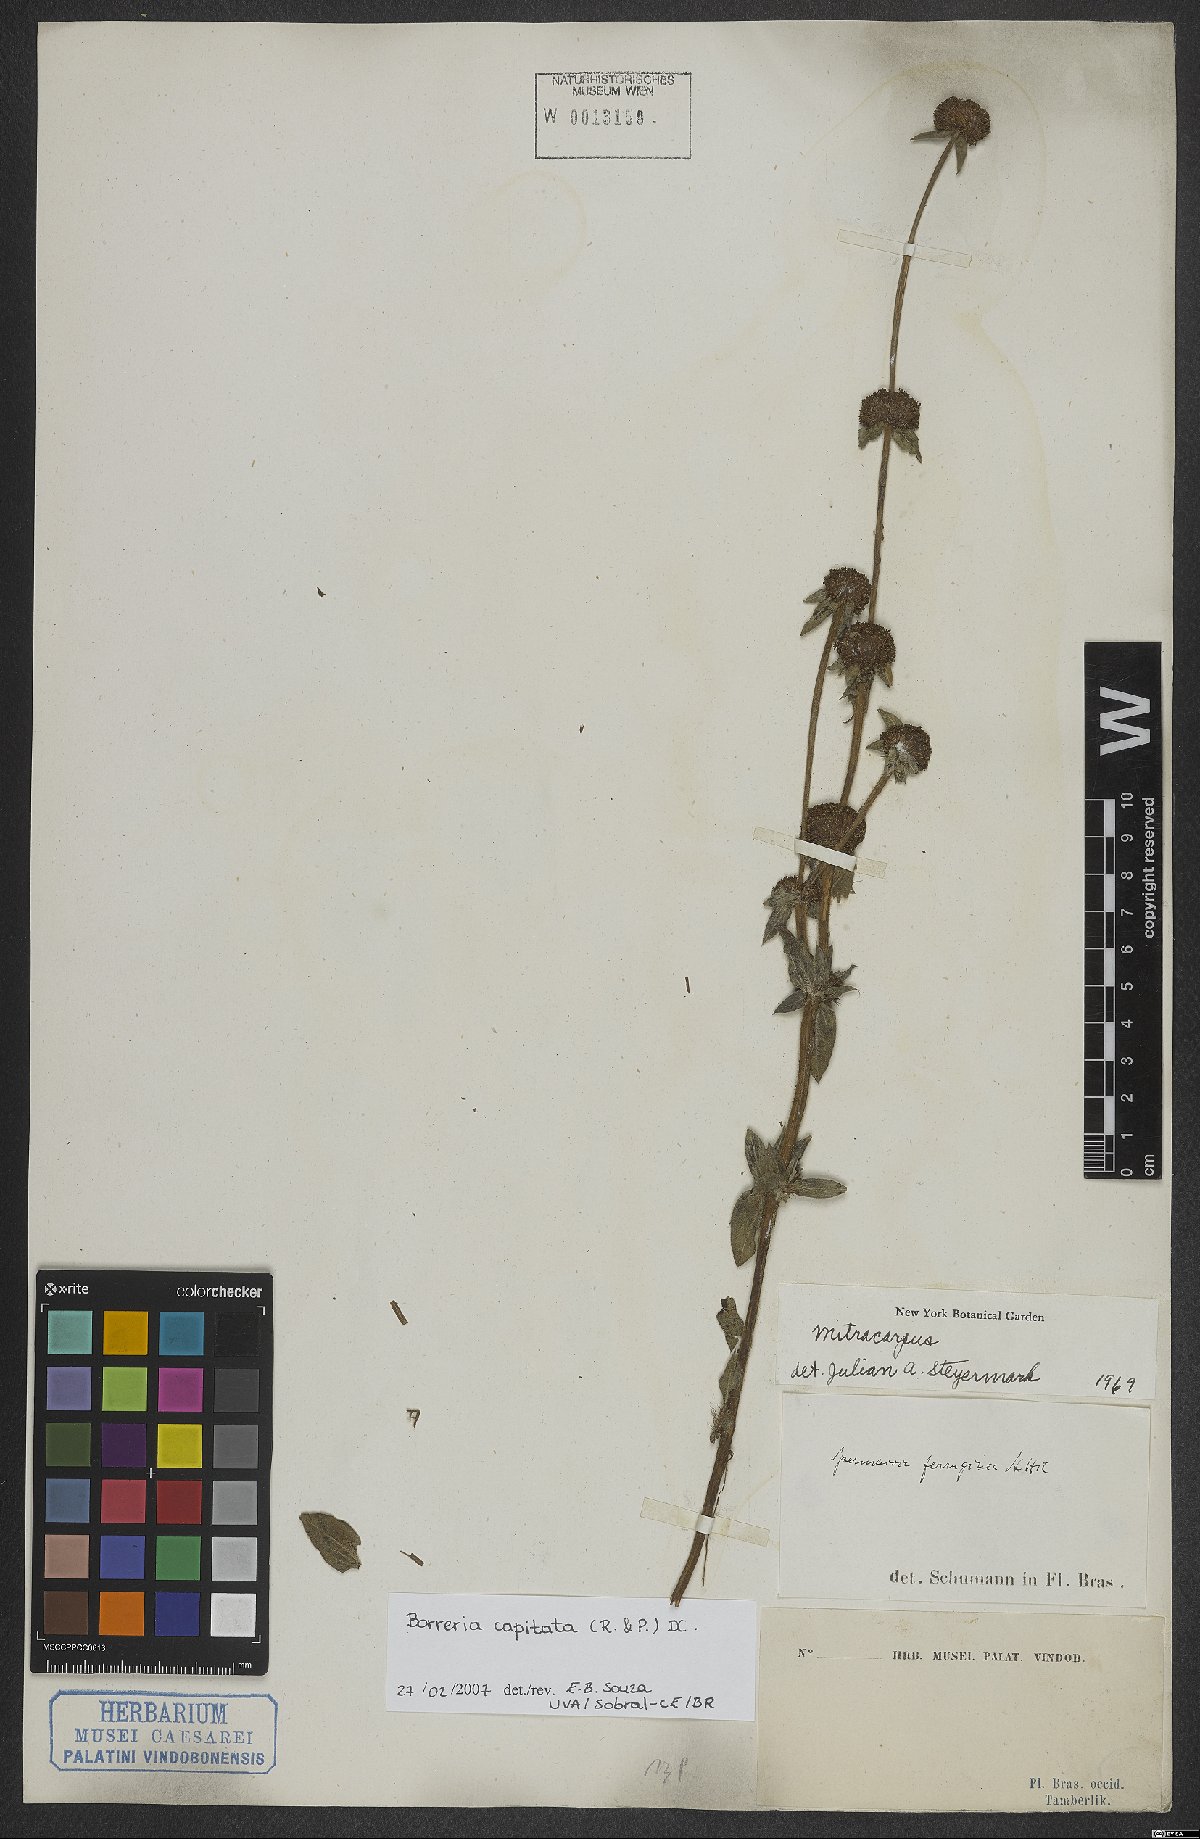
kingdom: Plantae
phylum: Tracheophyta
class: Magnoliopsida
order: Gentianales
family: Rubiaceae
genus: Spermacoce
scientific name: Spermacoce capitata
